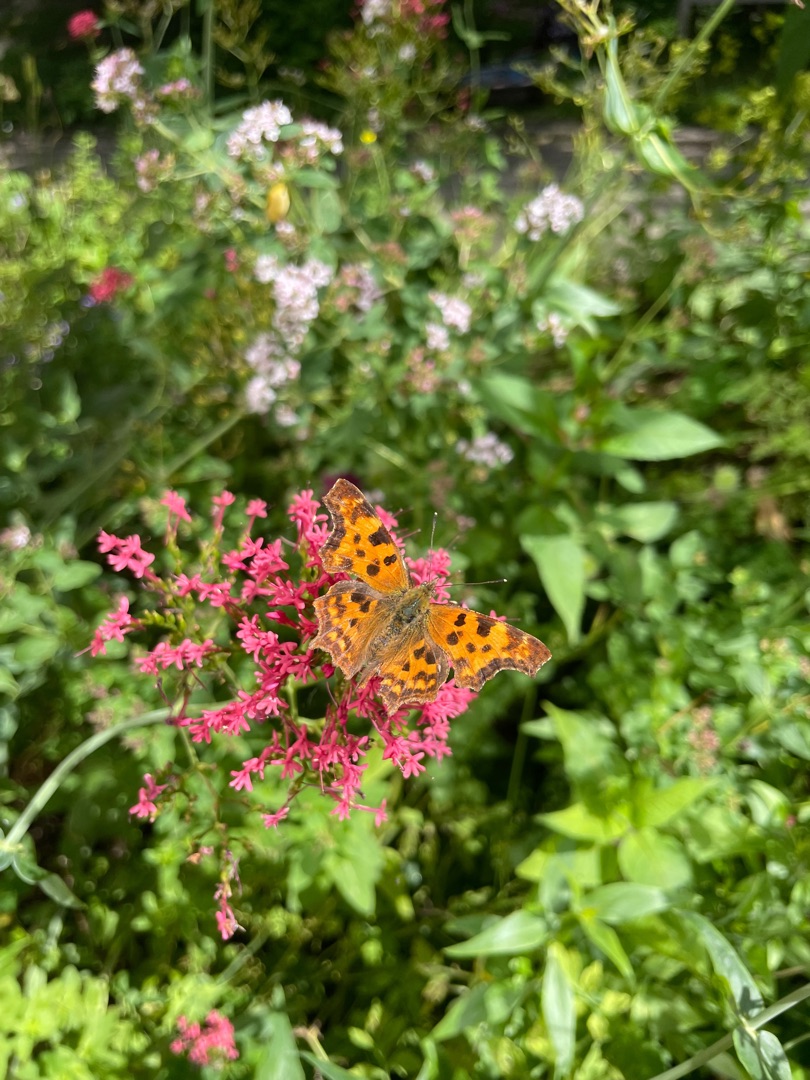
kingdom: Animalia
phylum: Arthropoda
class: Insecta
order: Lepidoptera
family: Nymphalidae
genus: Polygonia
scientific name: Polygonia c-album
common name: Det hvide C
